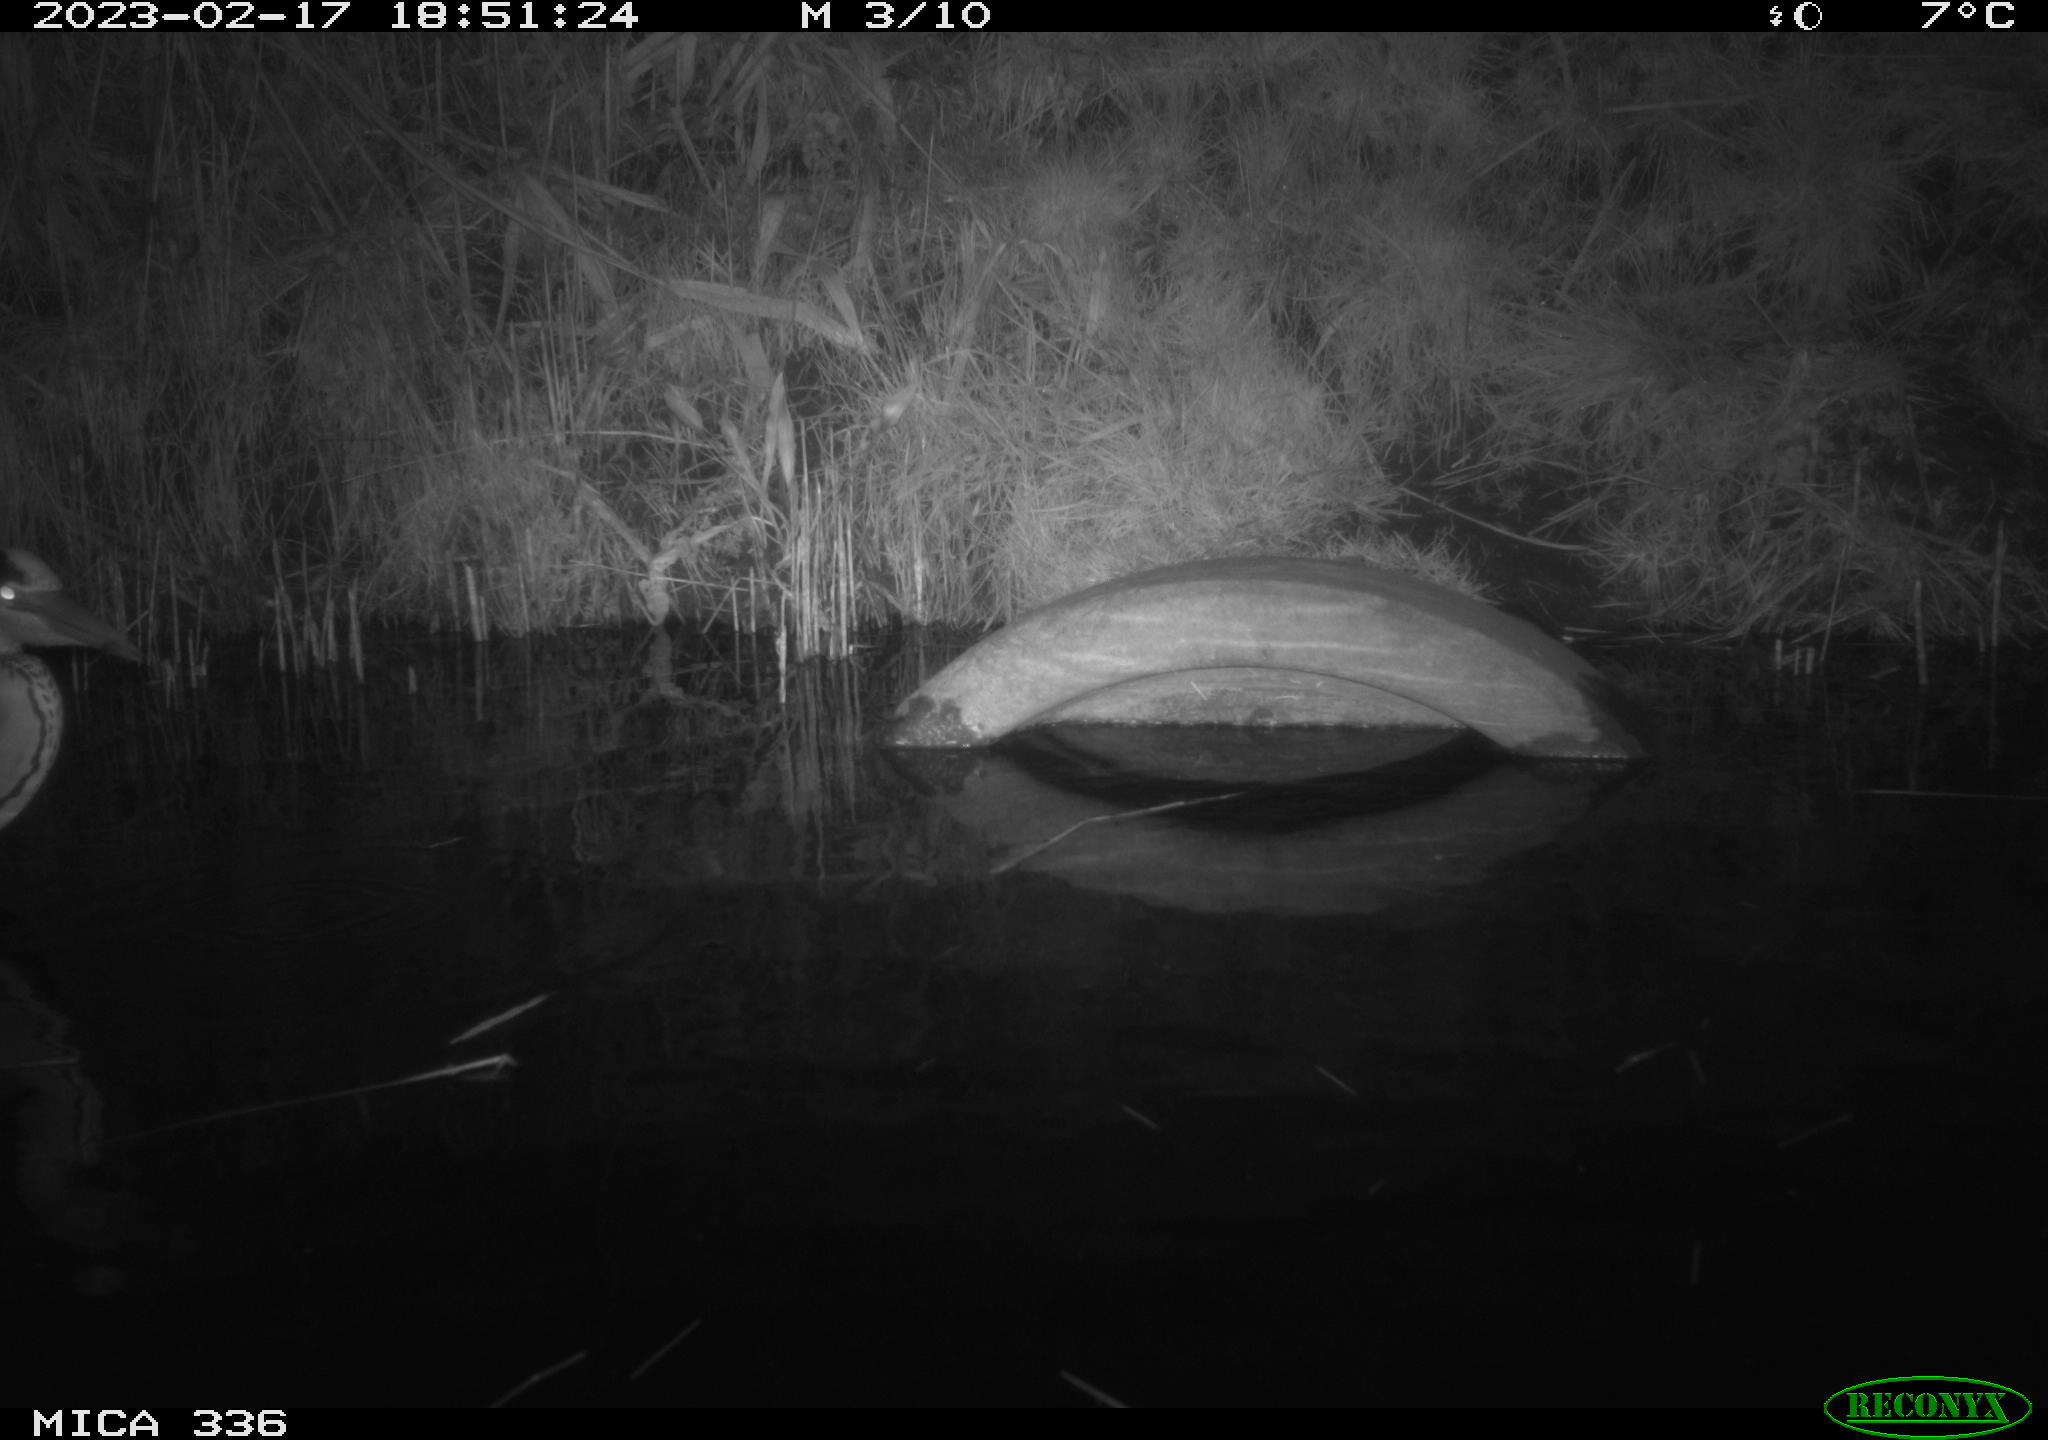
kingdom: Animalia
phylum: Chordata
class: Aves
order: Pelecaniformes
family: Ardeidae
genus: Ardea
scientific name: Ardea cinerea
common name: Grey heron
